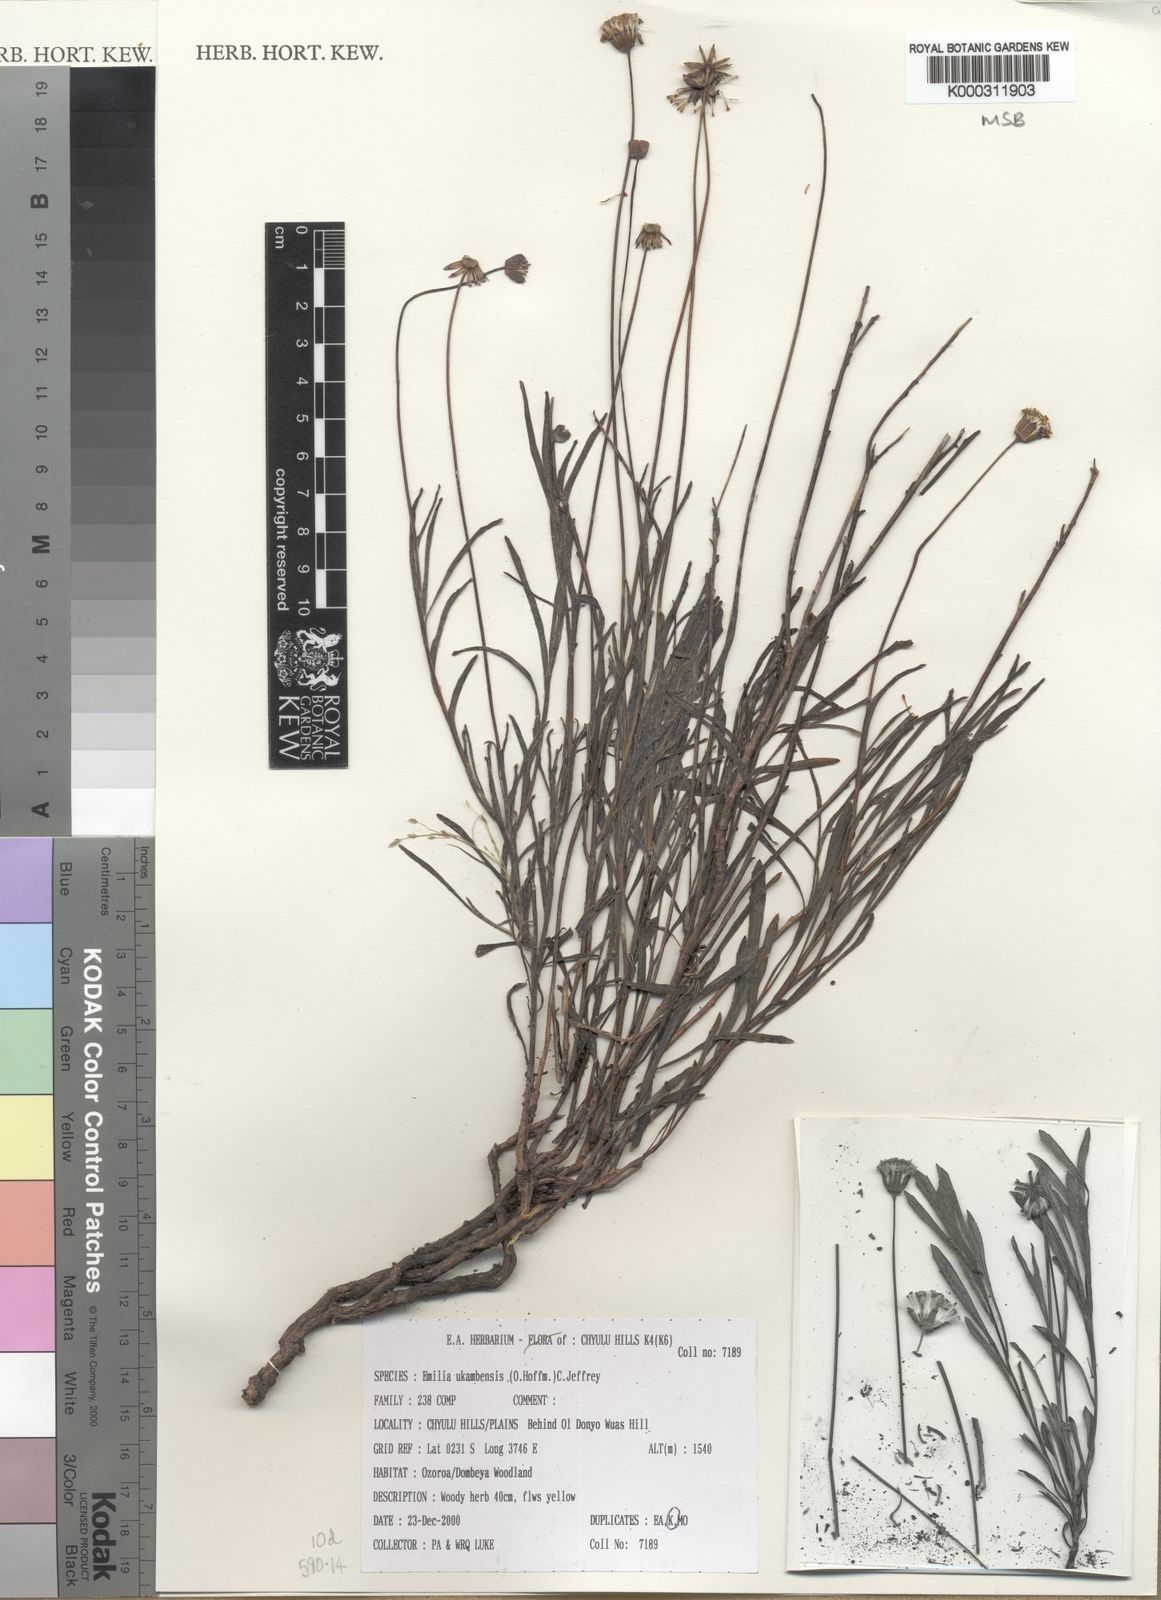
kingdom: Plantae
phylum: Tracheophyta
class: Magnoliopsida
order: Asterales
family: Asteraceae
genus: Emilia
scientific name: Emilia ukambensis
